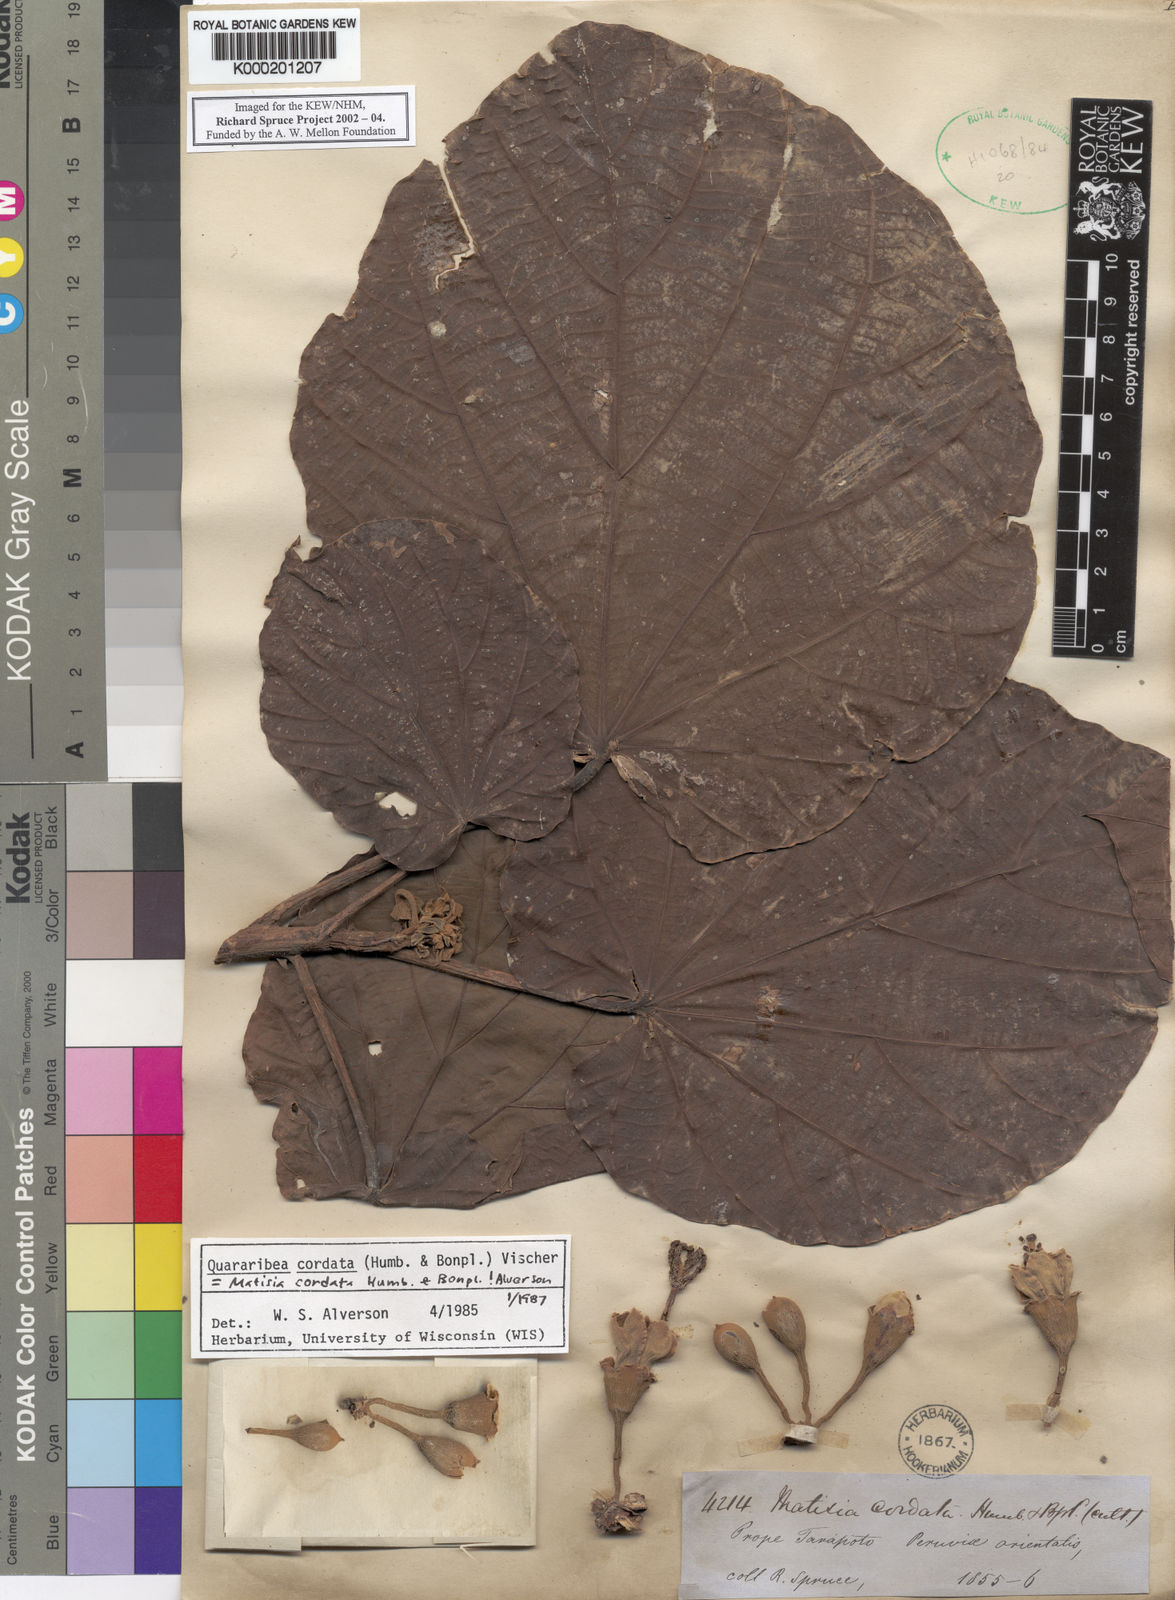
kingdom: Plantae
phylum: Tracheophyta
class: Magnoliopsida
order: Malvales
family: Malvaceae
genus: Matisia
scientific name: Matisia cordata
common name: South american sapote
